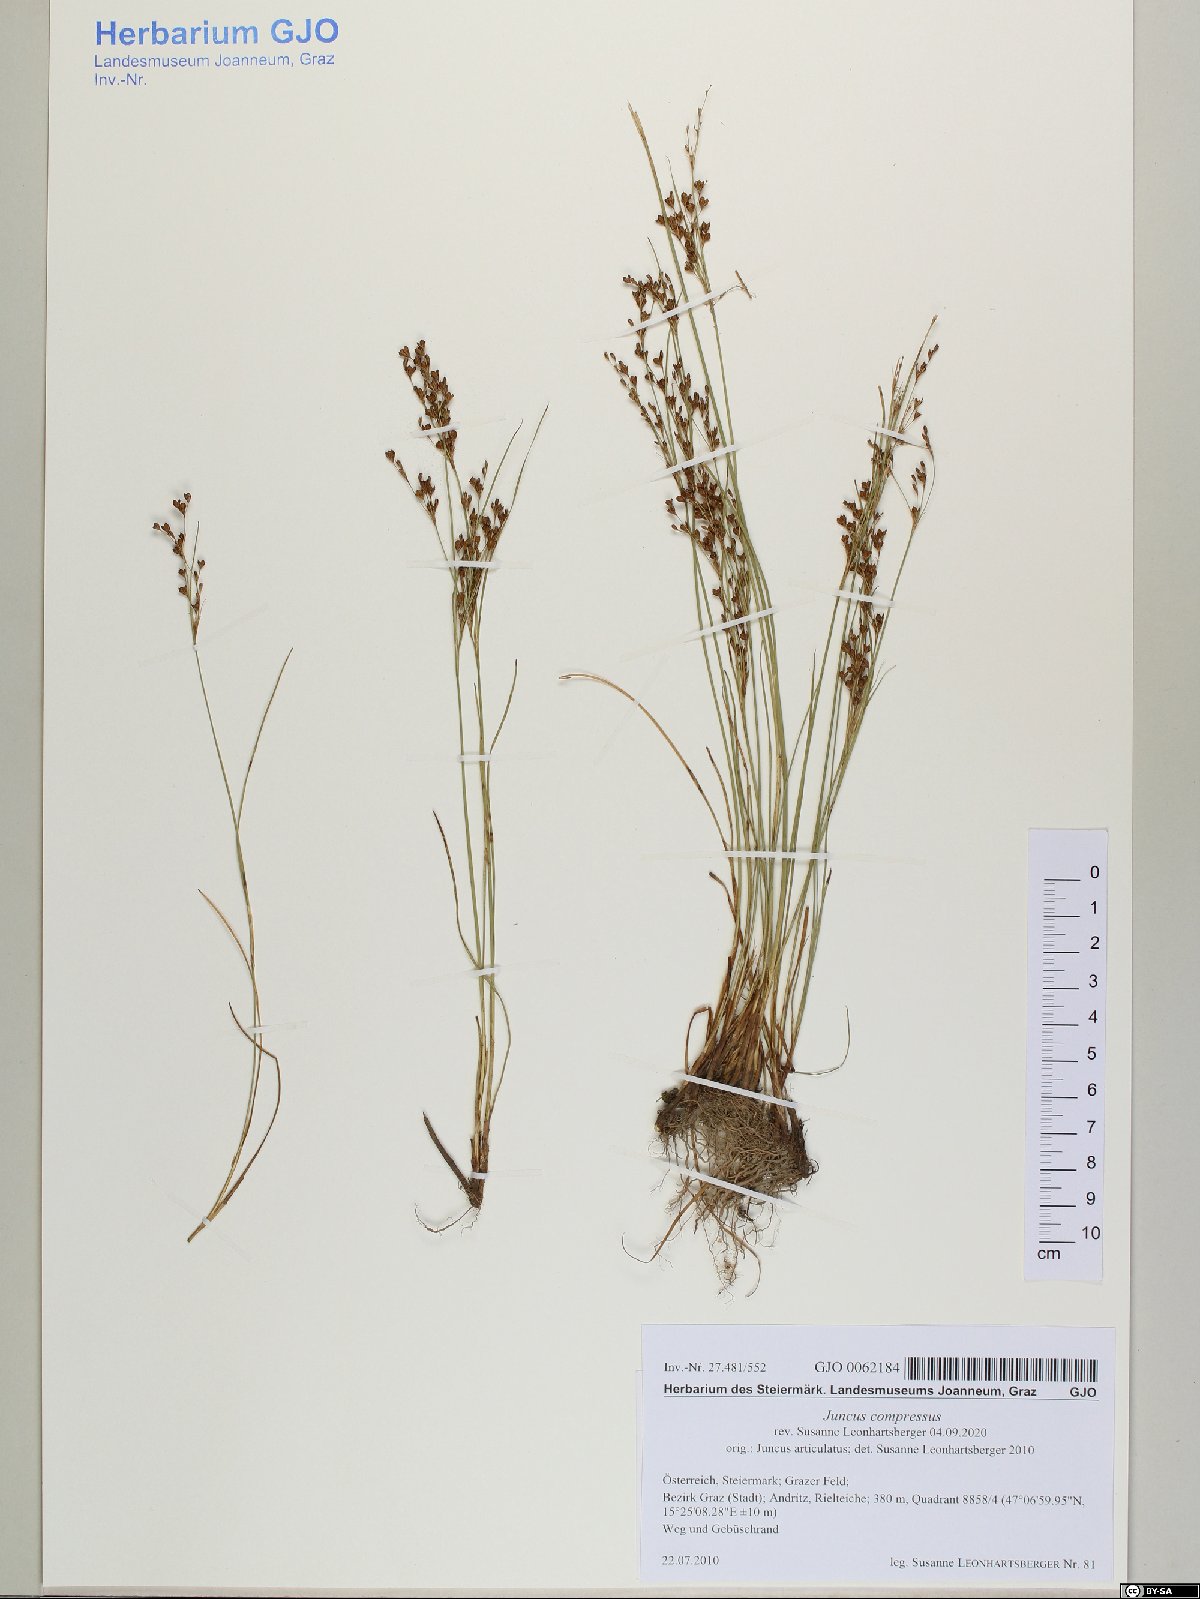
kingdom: Plantae
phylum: Tracheophyta
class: Liliopsida
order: Poales
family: Juncaceae
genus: Juncus
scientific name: Juncus compressus
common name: Round-fruited rush
